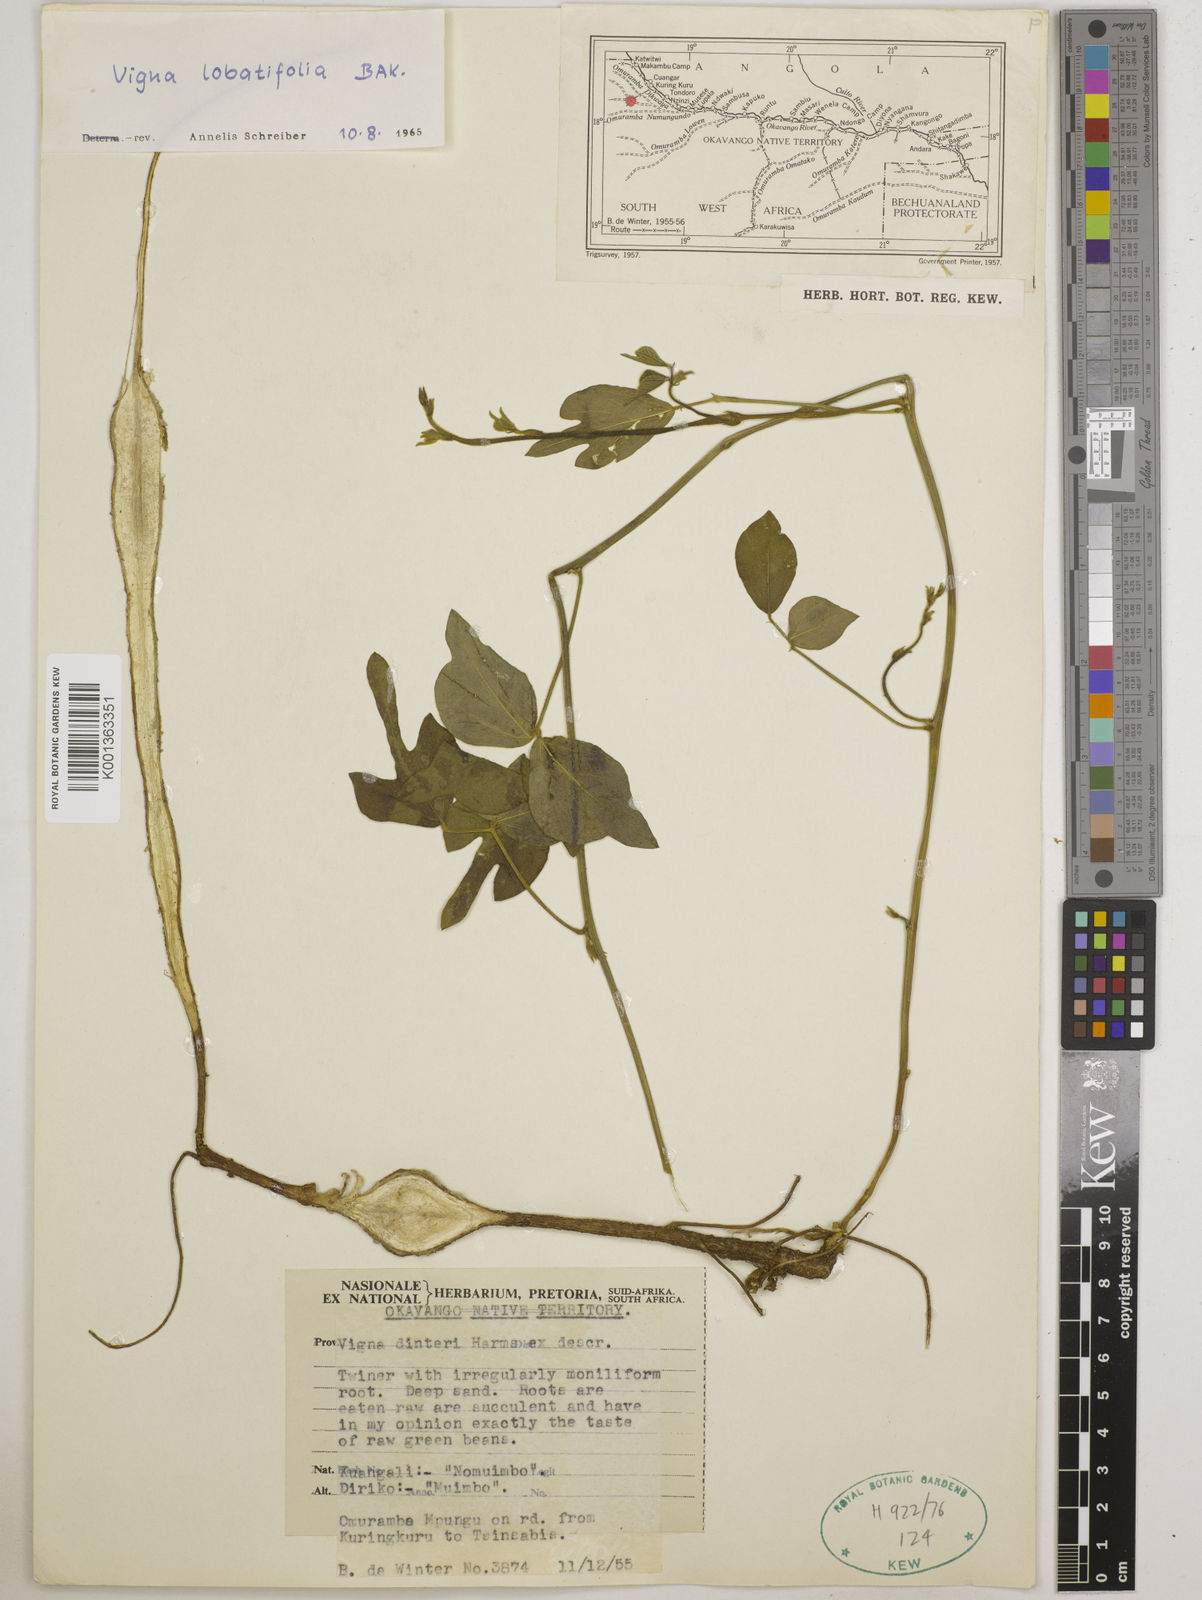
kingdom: Plantae
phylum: Tracheophyta
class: Magnoliopsida
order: Fabales
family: Fabaceae
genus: Vigna
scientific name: Vigna lobatifolia
